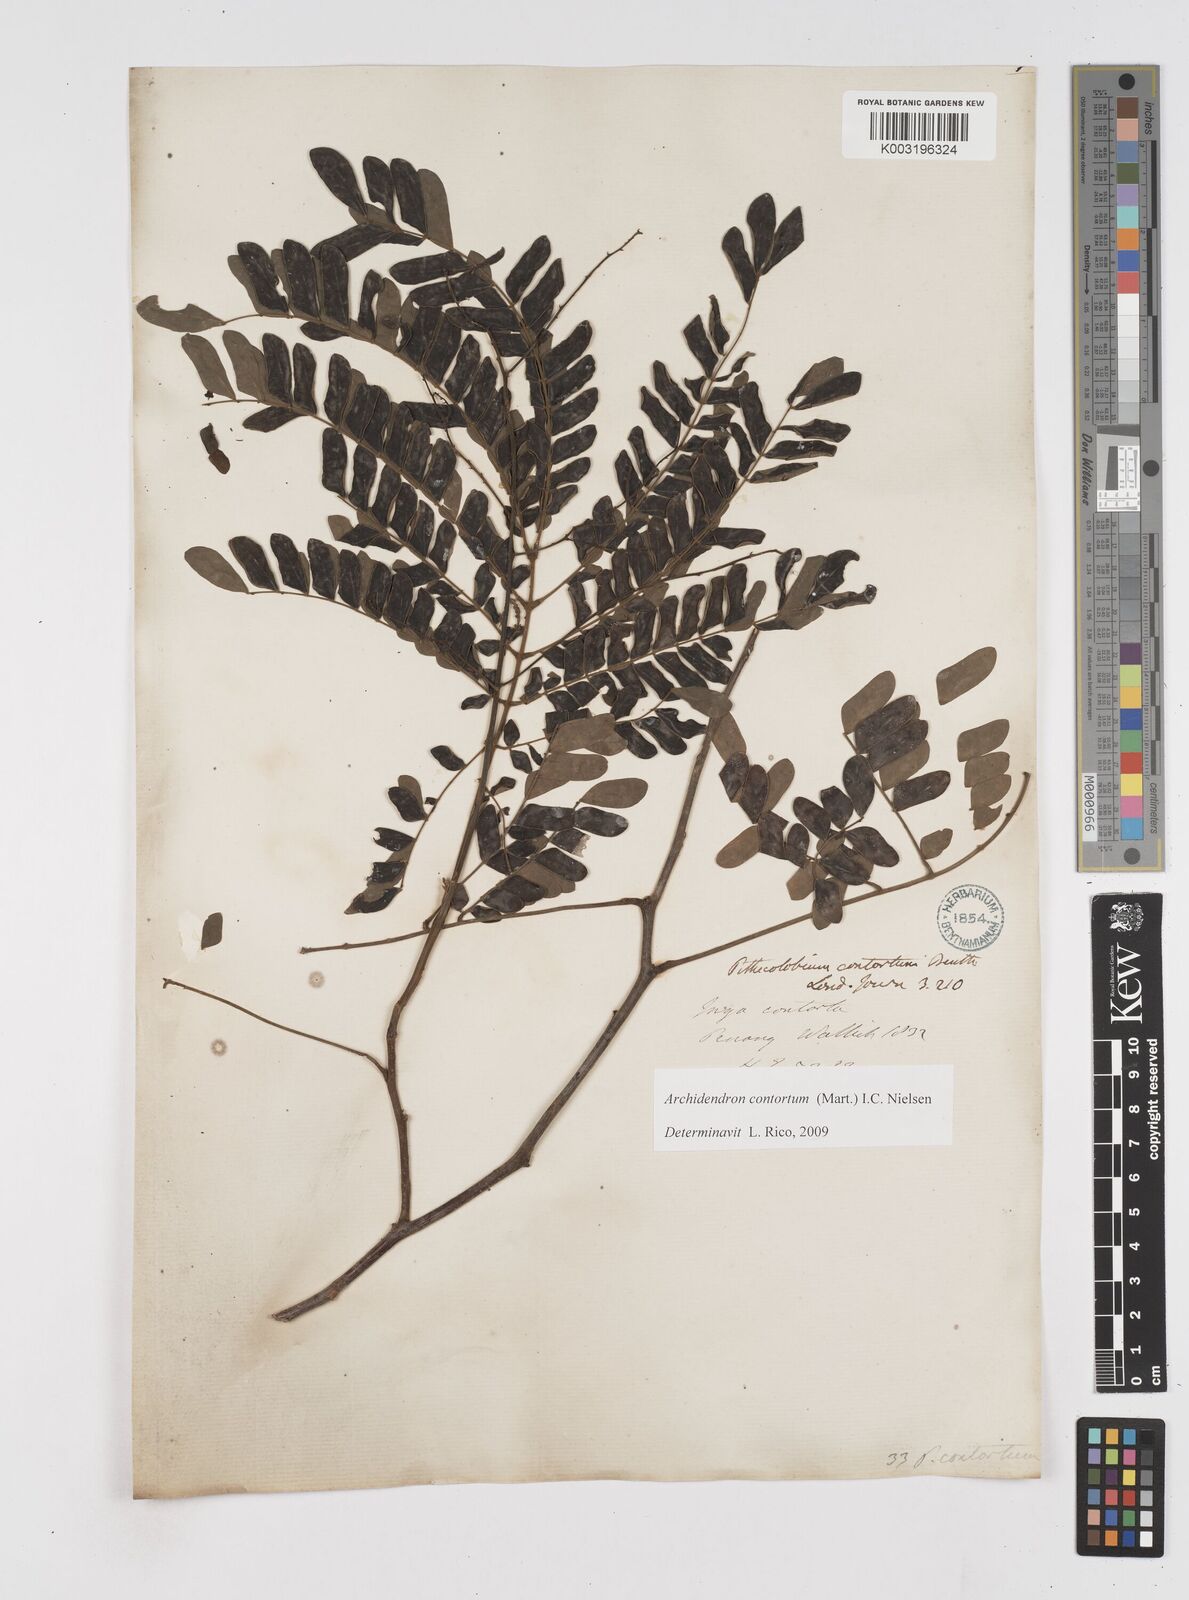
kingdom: Plantae
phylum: Tracheophyta
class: Magnoliopsida
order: Fabales
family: Fabaceae
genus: Archidendron
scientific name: Archidendron contortum
